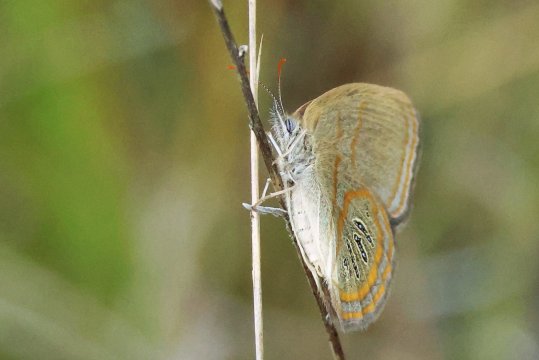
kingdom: Animalia
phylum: Arthropoda
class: Insecta
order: Lepidoptera
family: Nymphalidae
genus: Euptychia
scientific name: Euptychia phocion
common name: Georgia Satyr
